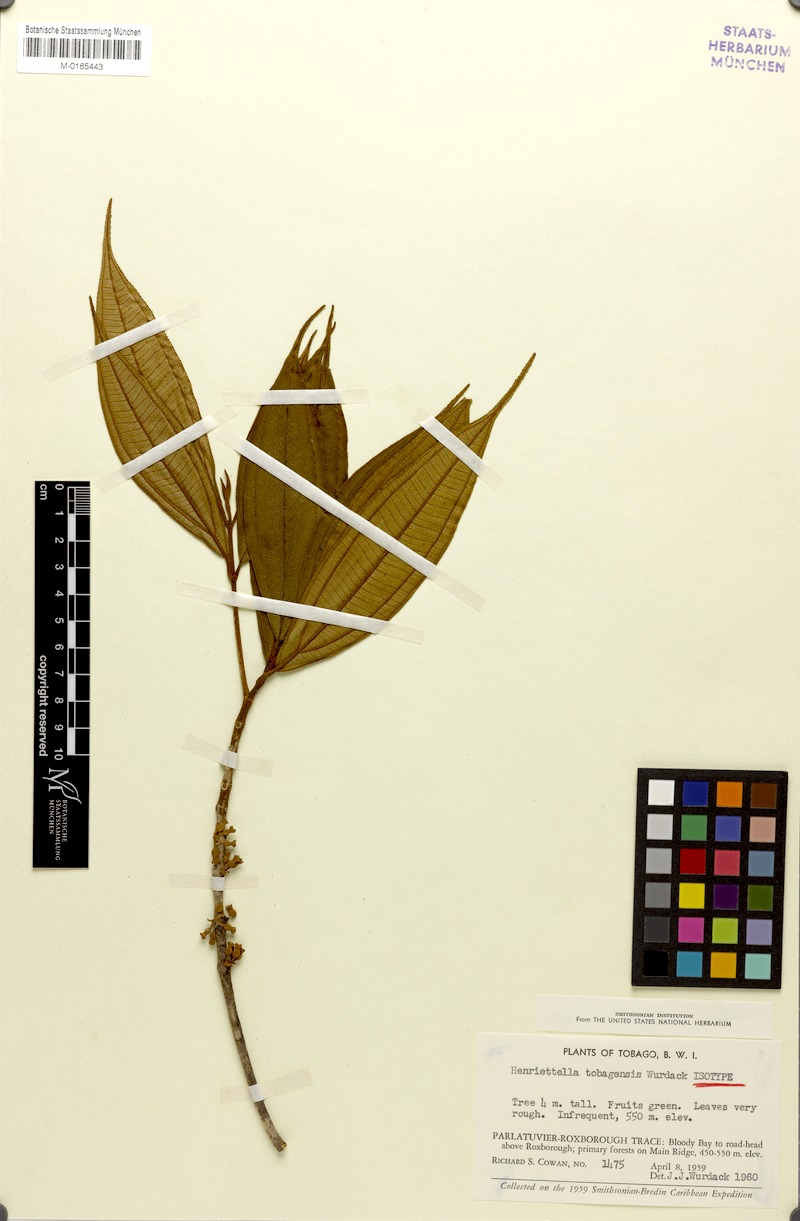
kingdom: Plantae
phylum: Tracheophyta
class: Magnoliopsida
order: Myrtales
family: Melastomataceae
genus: Henriettea
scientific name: Henriettea tobagensis
